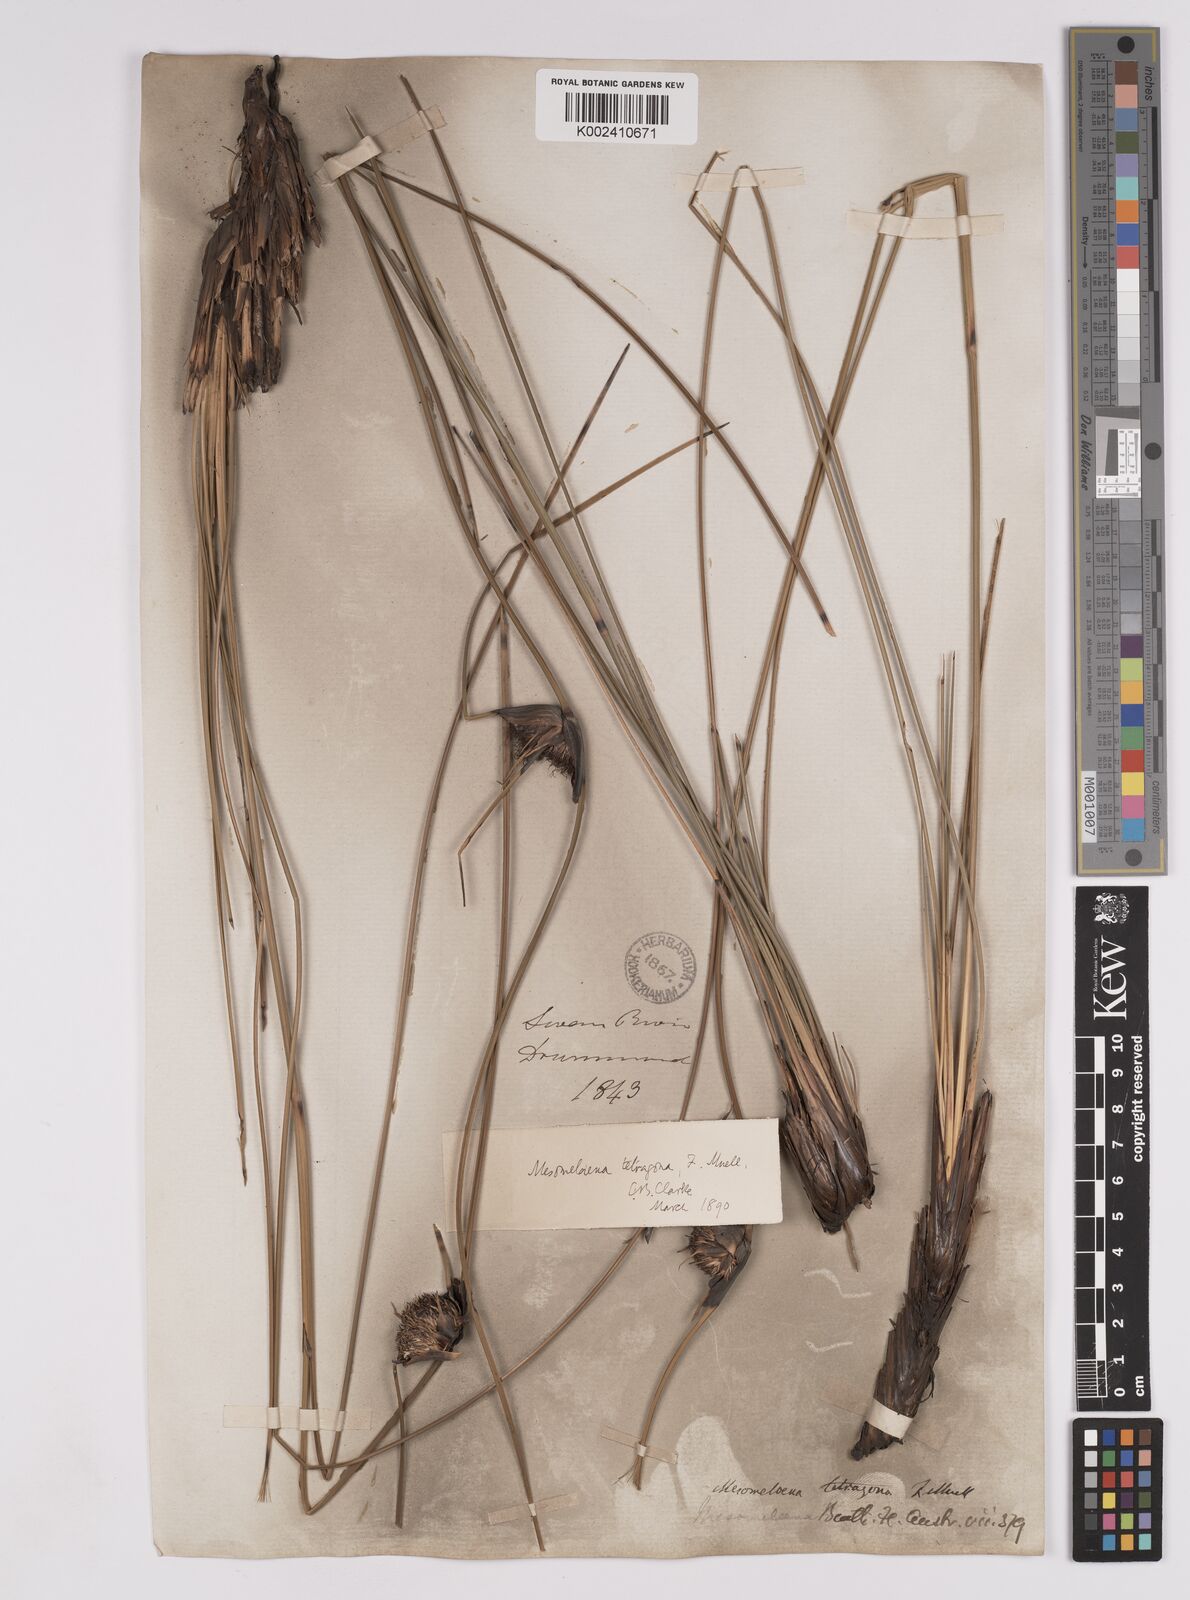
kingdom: Plantae
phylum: Tracheophyta
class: Liliopsida
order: Poales
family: Cyperaceae
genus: Mesomelaena
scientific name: Mesomelaena tetragona
